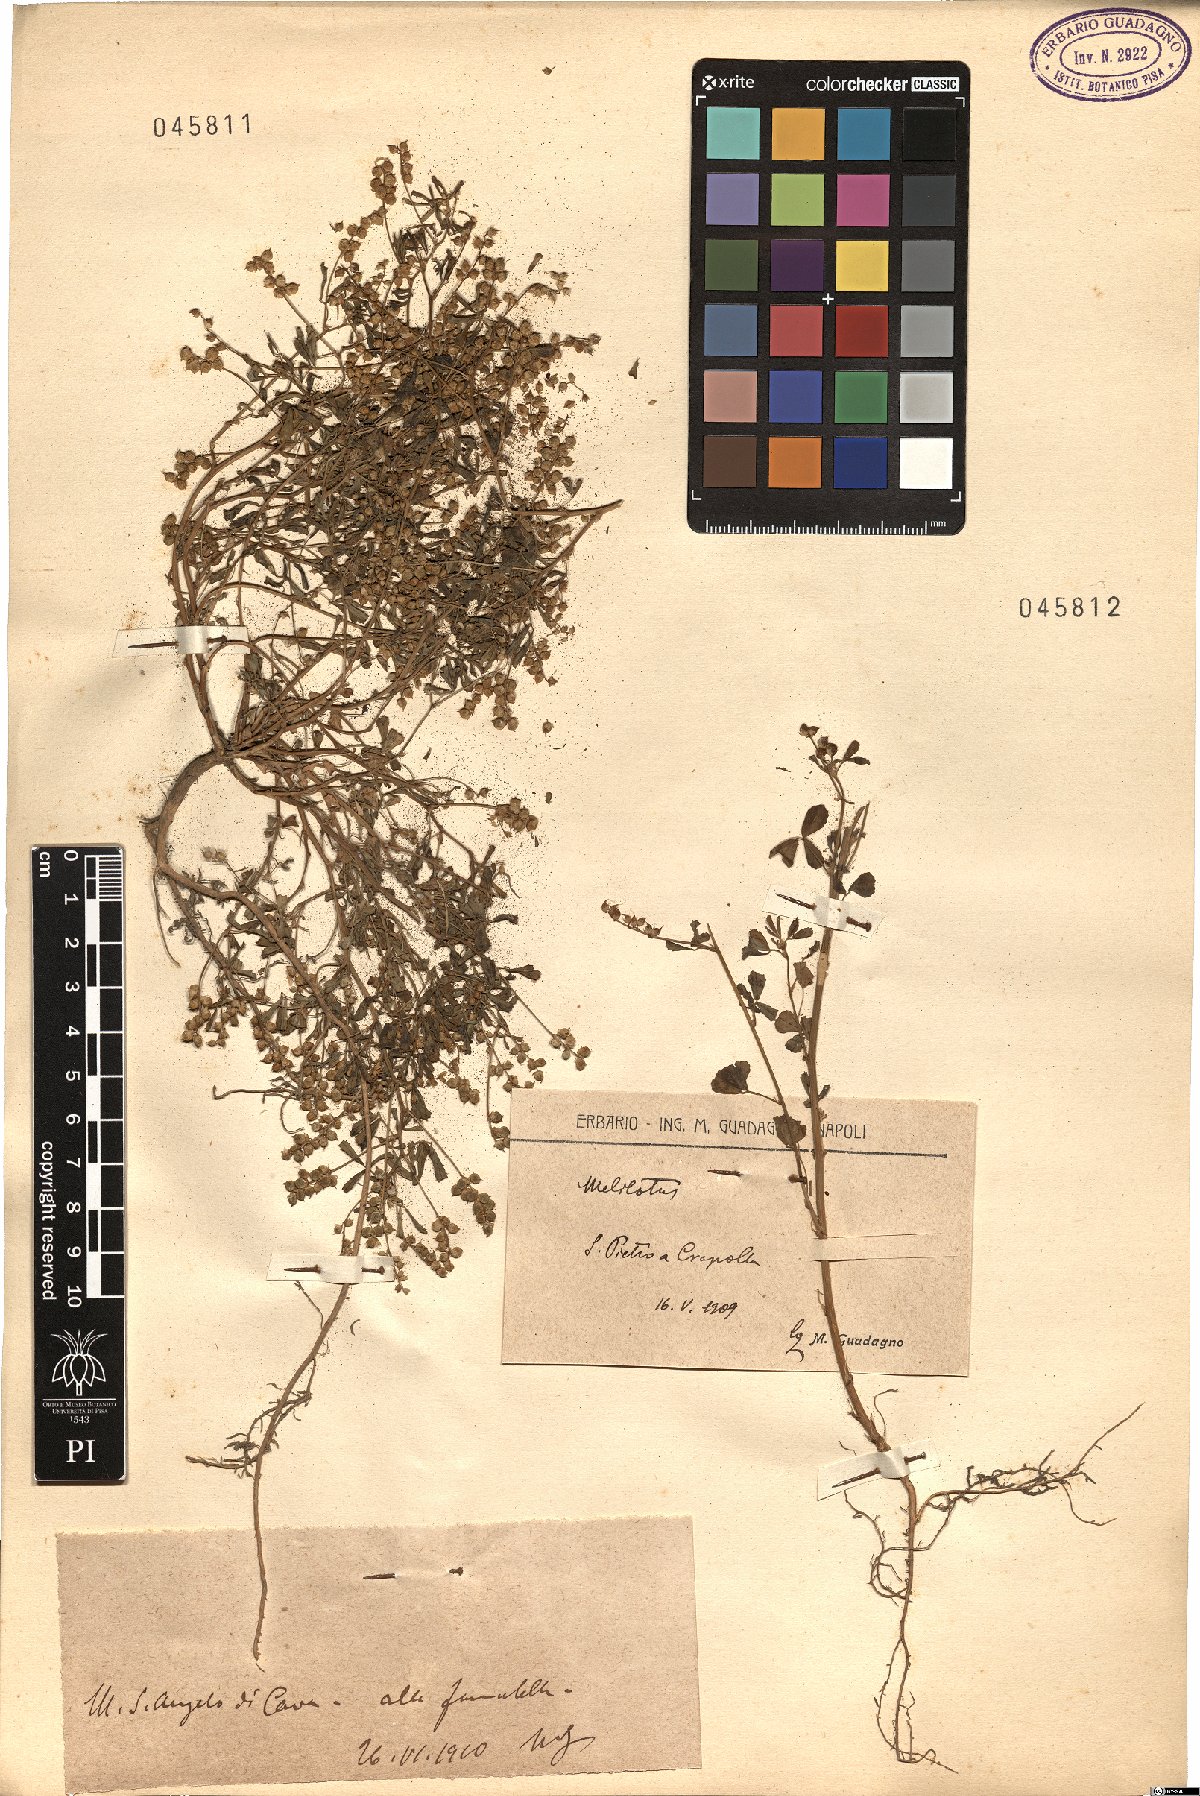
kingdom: Plantae
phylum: Tracheophyta
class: Magnoliopsida
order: Fabales
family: Fabaceae
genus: Melilotus
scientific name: Melilotus
